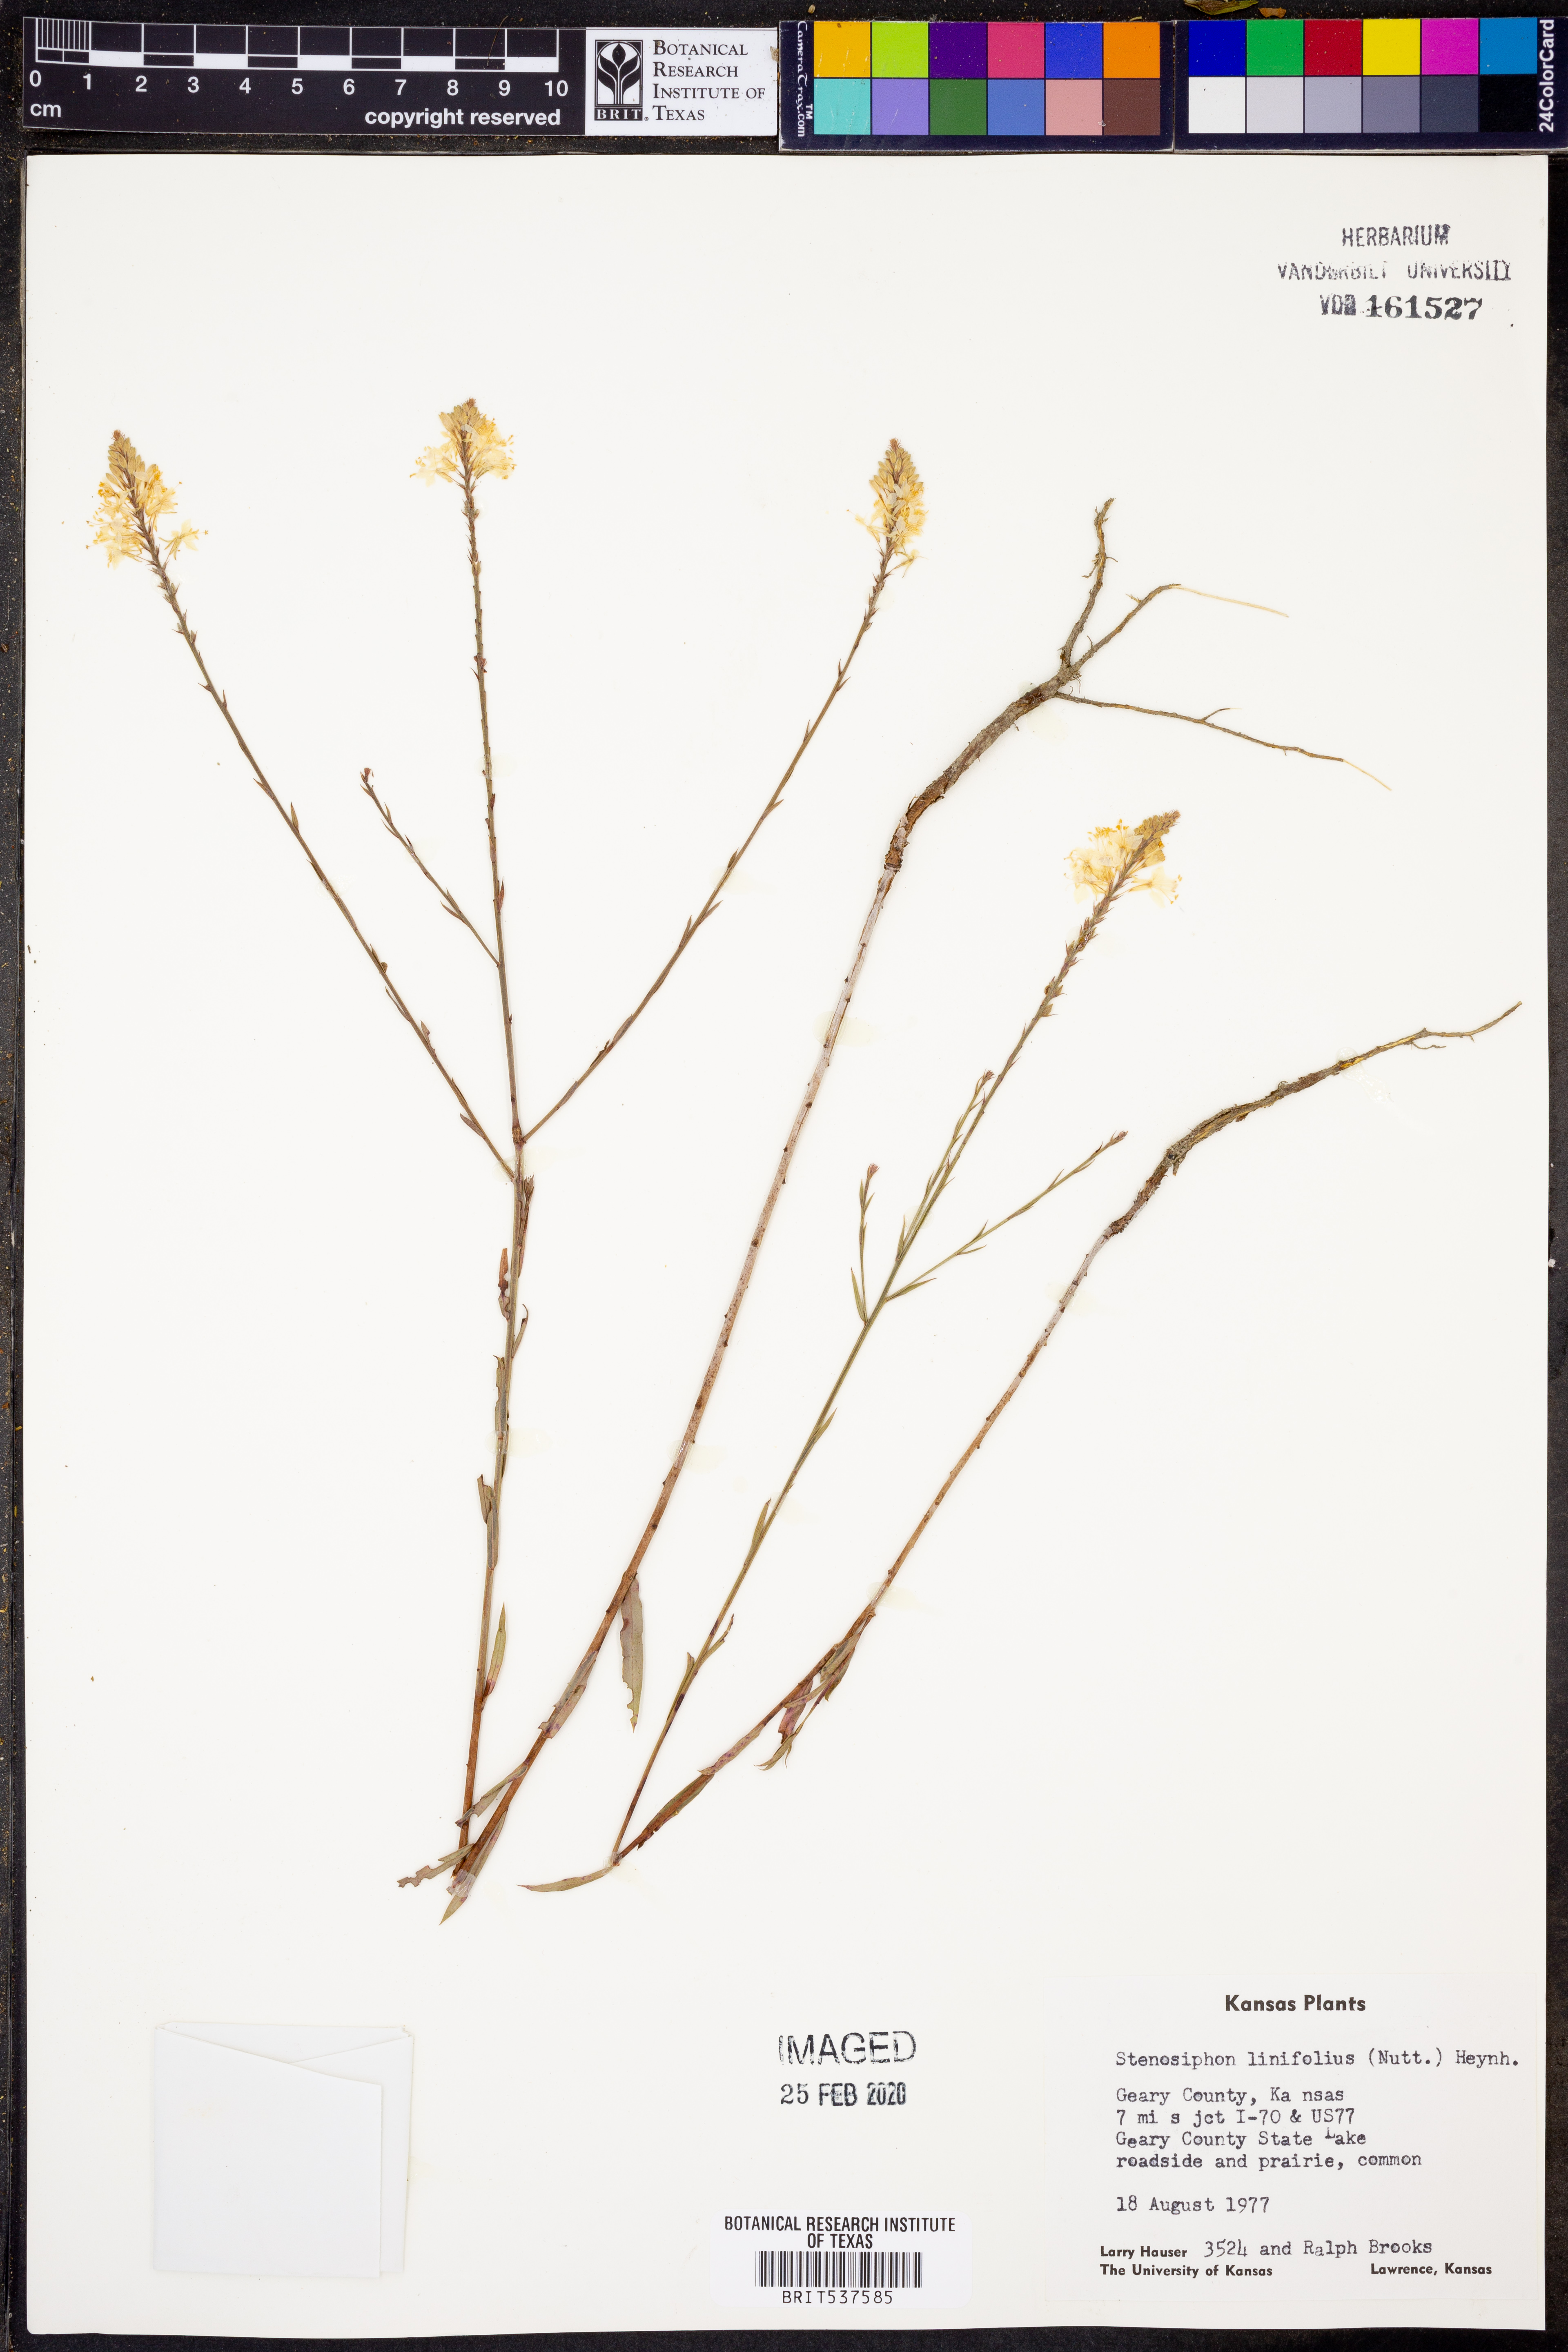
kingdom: Plantae
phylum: Tracheophyta
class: Magnoliopsida
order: Myrtales
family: Onagraceae
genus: Oenothera
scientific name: Oenothera glaucifolia
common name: False gaura
